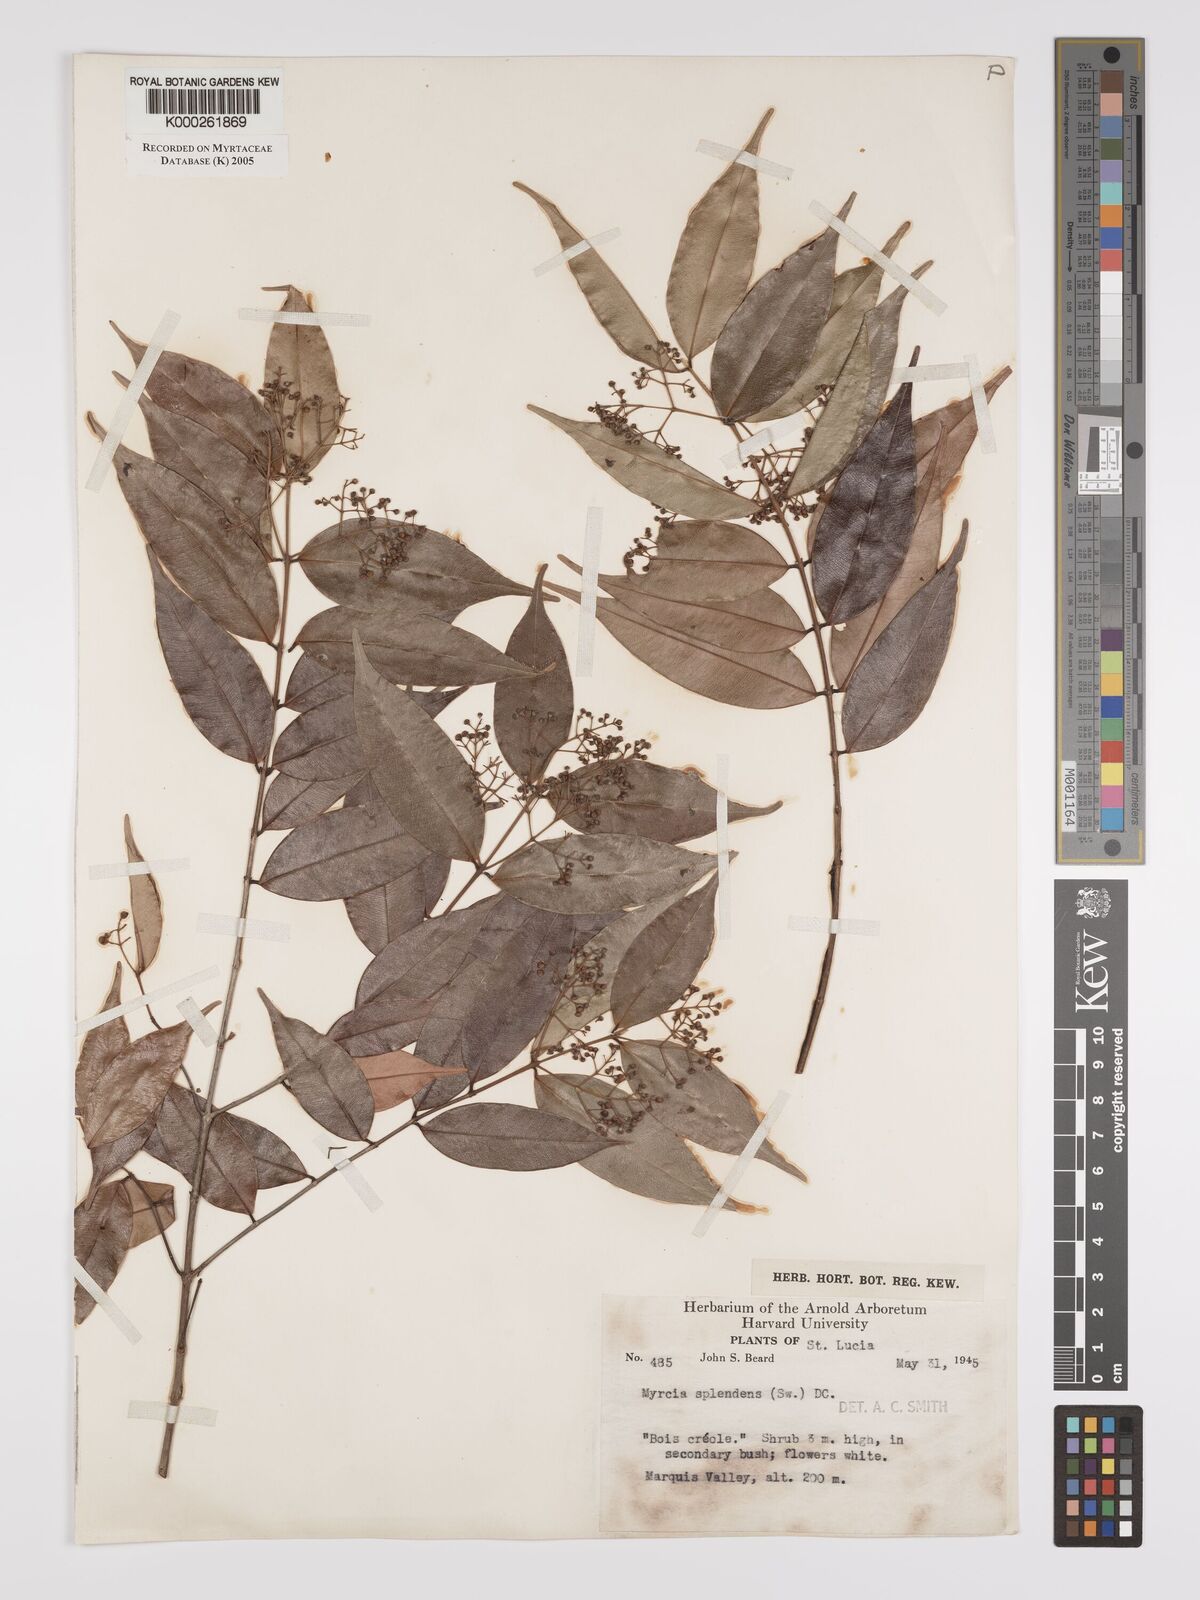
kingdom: Plantae
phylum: Tracheophyta
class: Magnoliopsida
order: Myrtales
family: Myrtaceae
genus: Myrcia
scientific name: Myrcia splendens
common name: Surinam cherry
